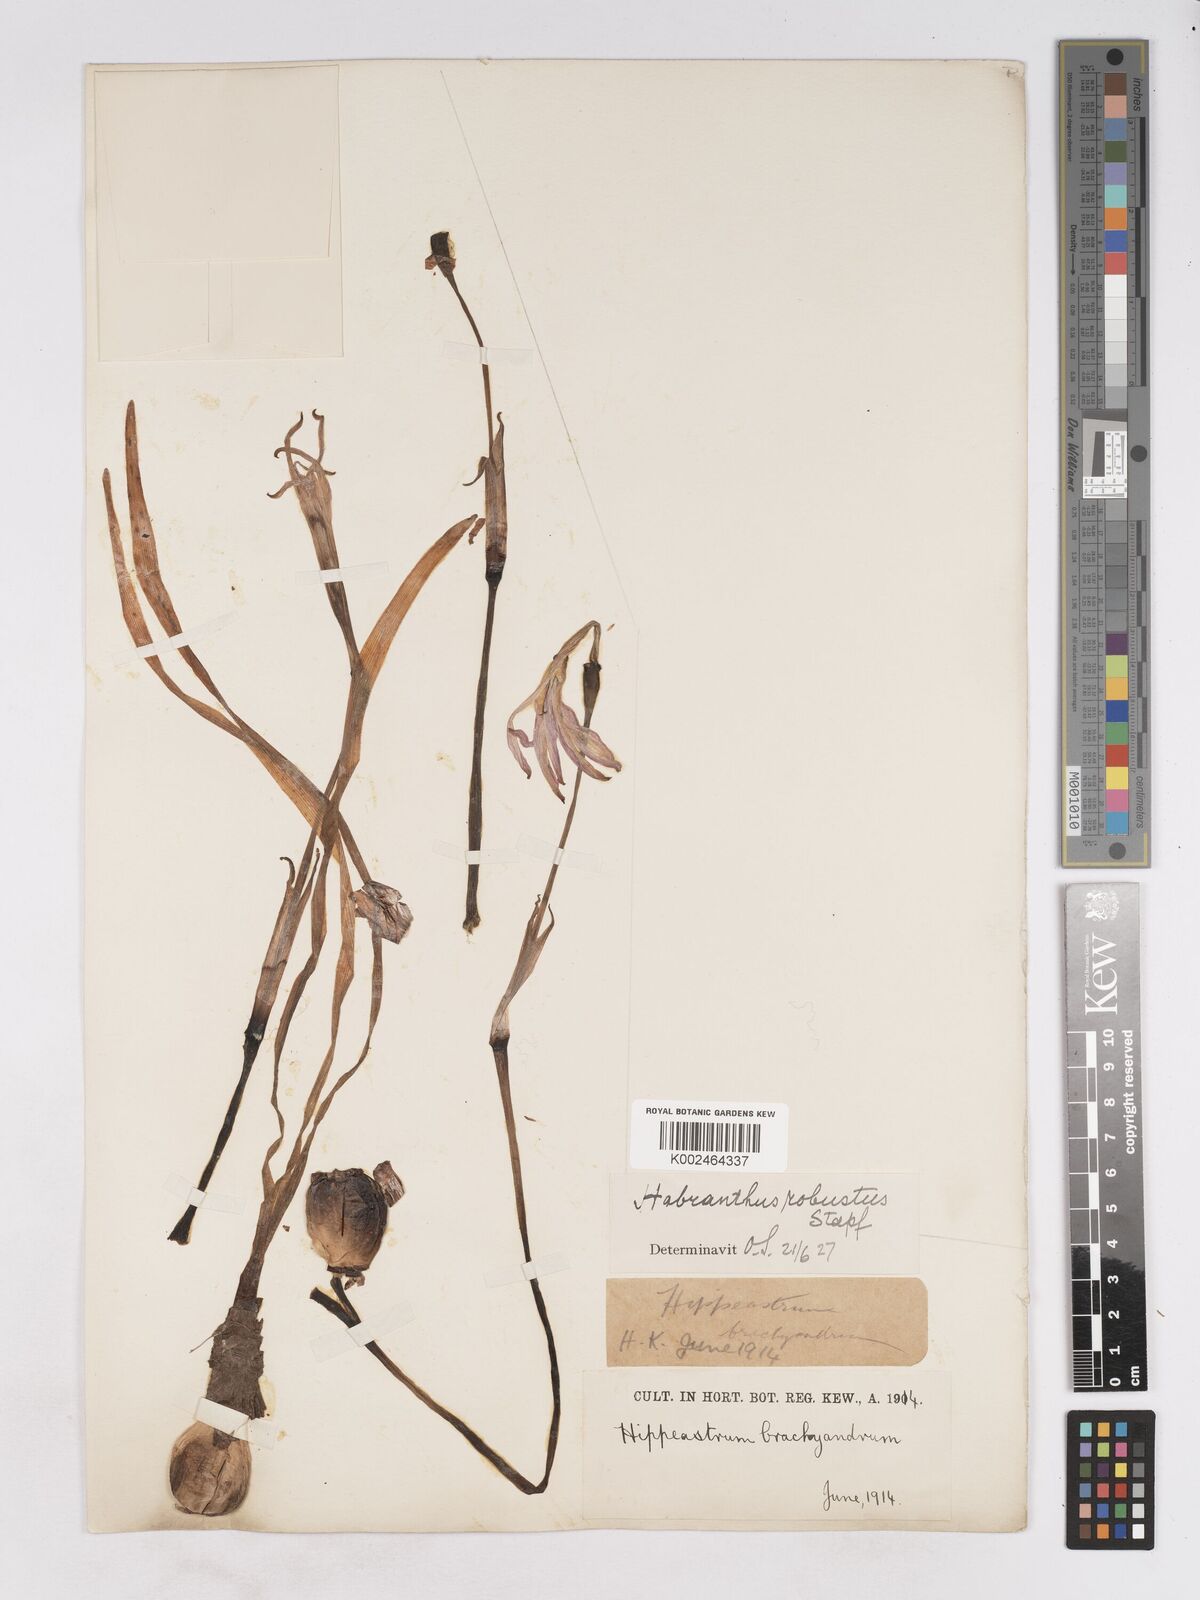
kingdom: Plantae
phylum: Tracheophyta
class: Liliopsida
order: Asparagales
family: Amaryllidaceae
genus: Zephyranthes
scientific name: Zephyranthes robusta
